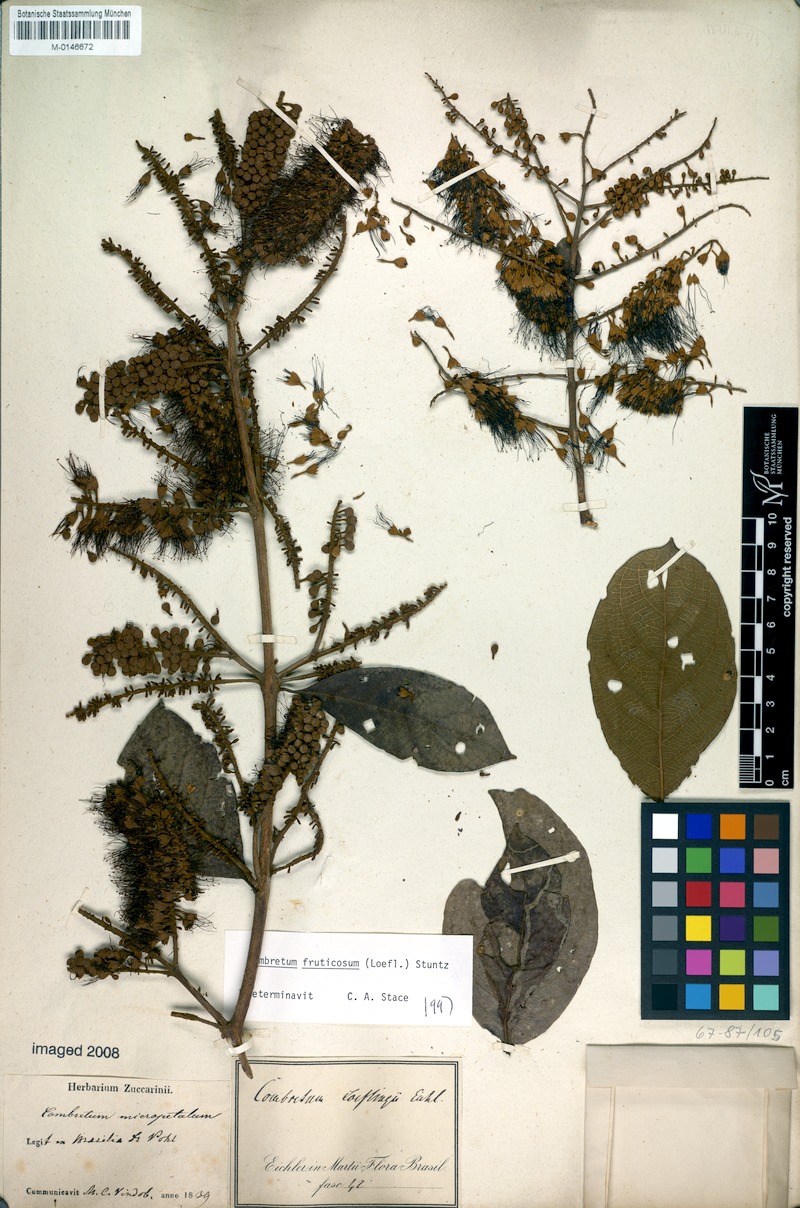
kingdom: Plantae
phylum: Tracheophyta
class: Magnoliopsida
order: Myrtales
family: Combretaceae
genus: Combretum
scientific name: Combretum fruticosum
